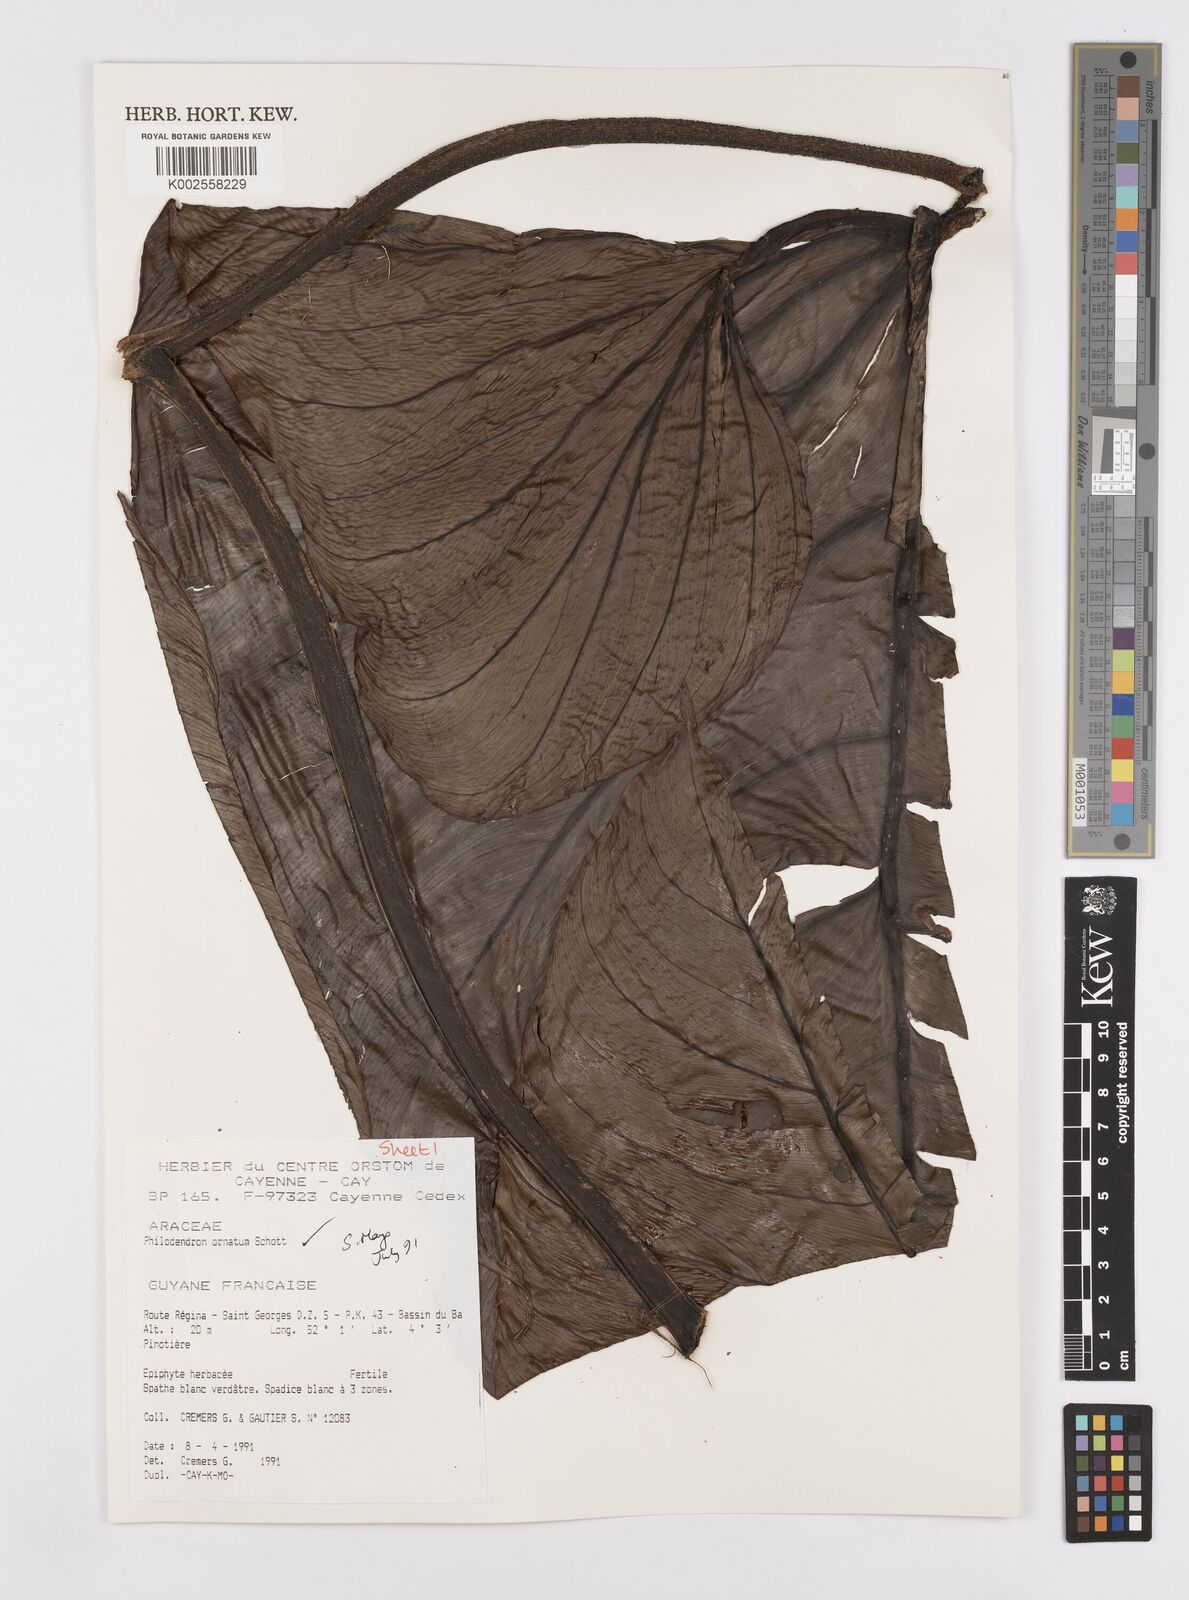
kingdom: Plantae
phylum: Tracheophyta
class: Liliopsida
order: Alismatales
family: Araceae
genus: Philodendron
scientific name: Philodendron ornatum
